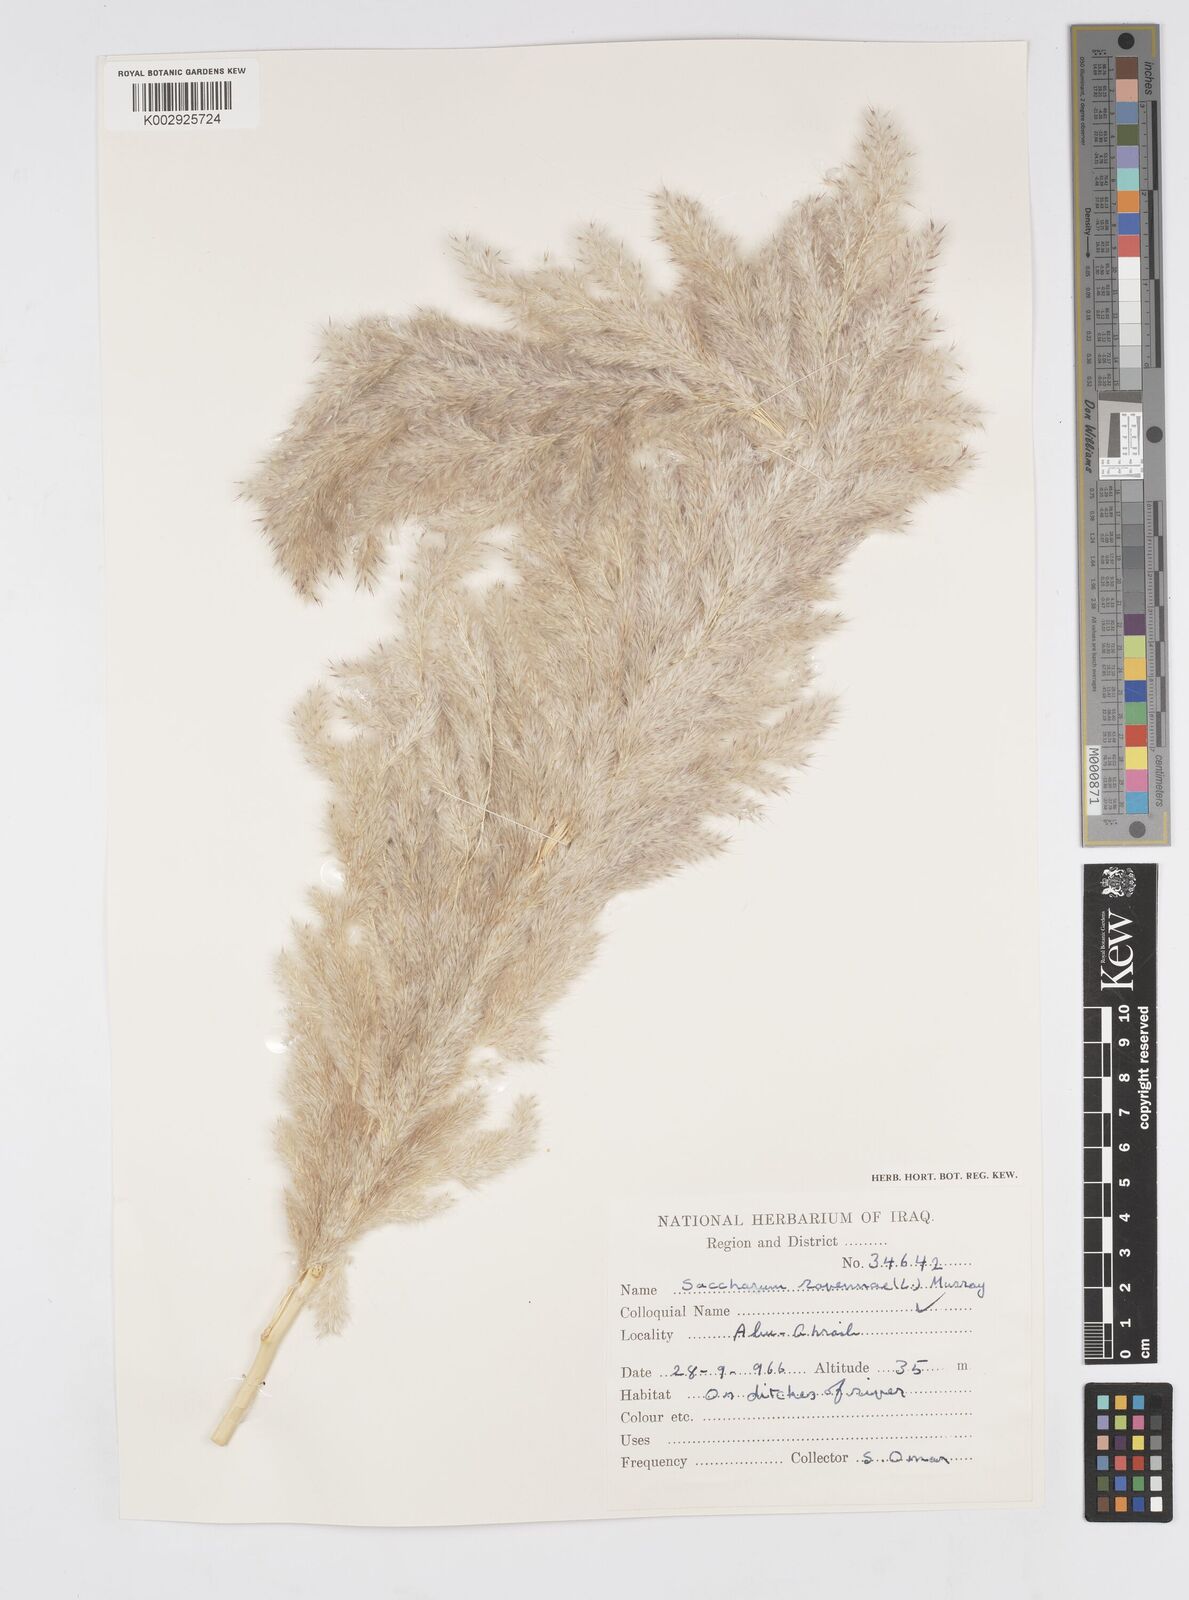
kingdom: Plantae
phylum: Tracheophyta
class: Liliopsida
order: Poales
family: Poaceae
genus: Tripidium
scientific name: Tripidium ravennae
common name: Ravenna grass
